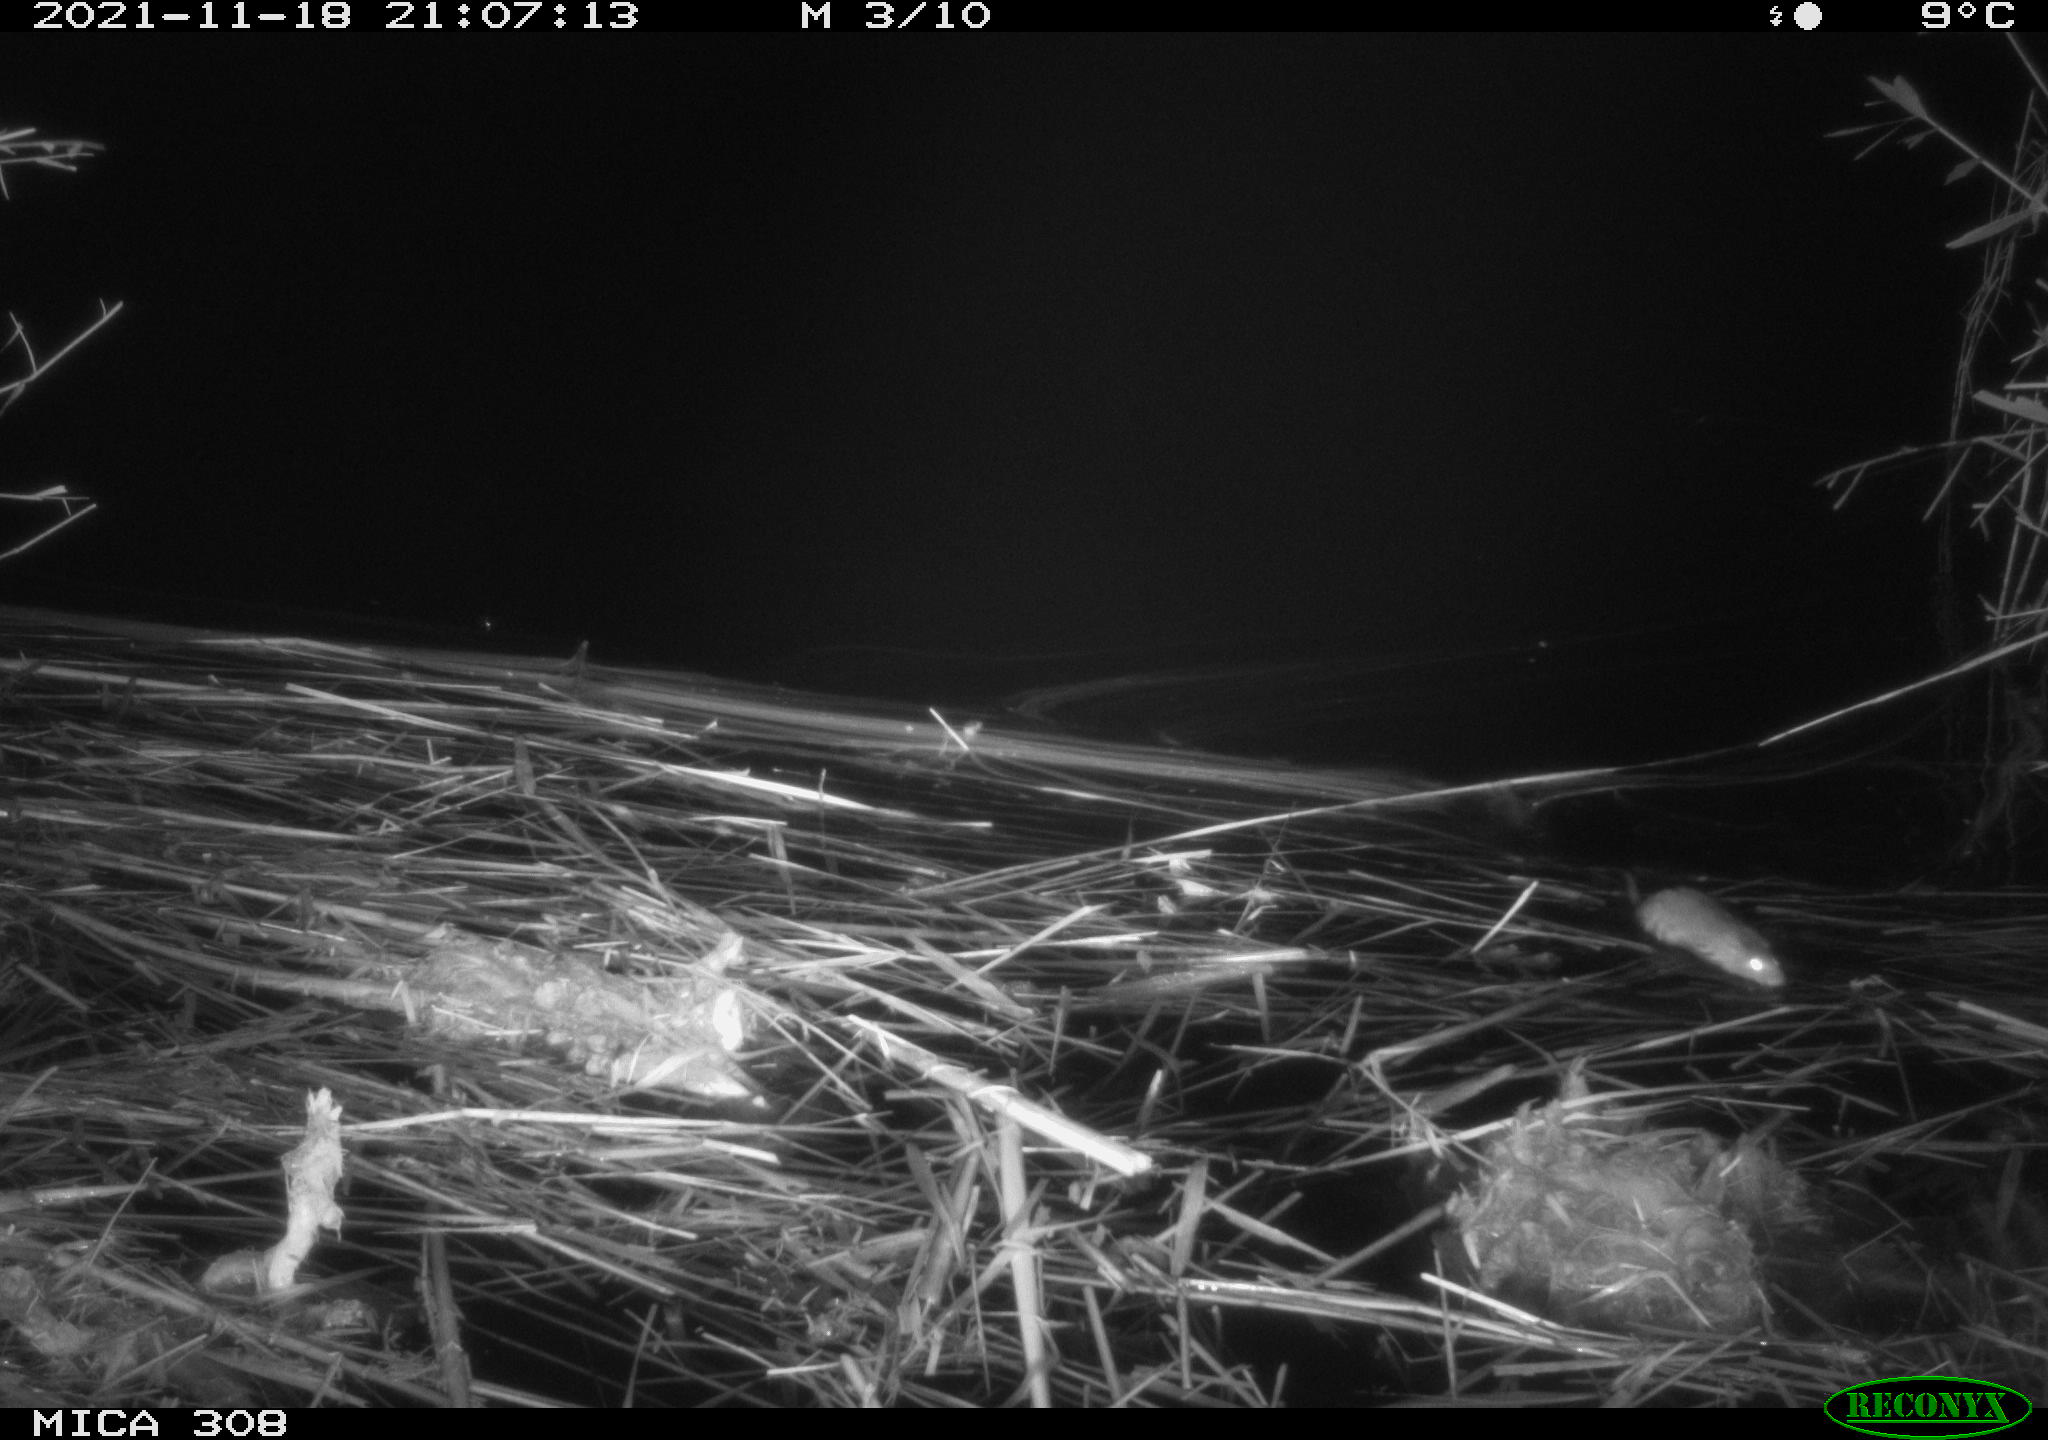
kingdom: Animalia
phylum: Chordata
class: Mammalia
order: Rodentia
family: Muridae
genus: Rattus
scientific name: Rattus norvegicus
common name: Brown rat
